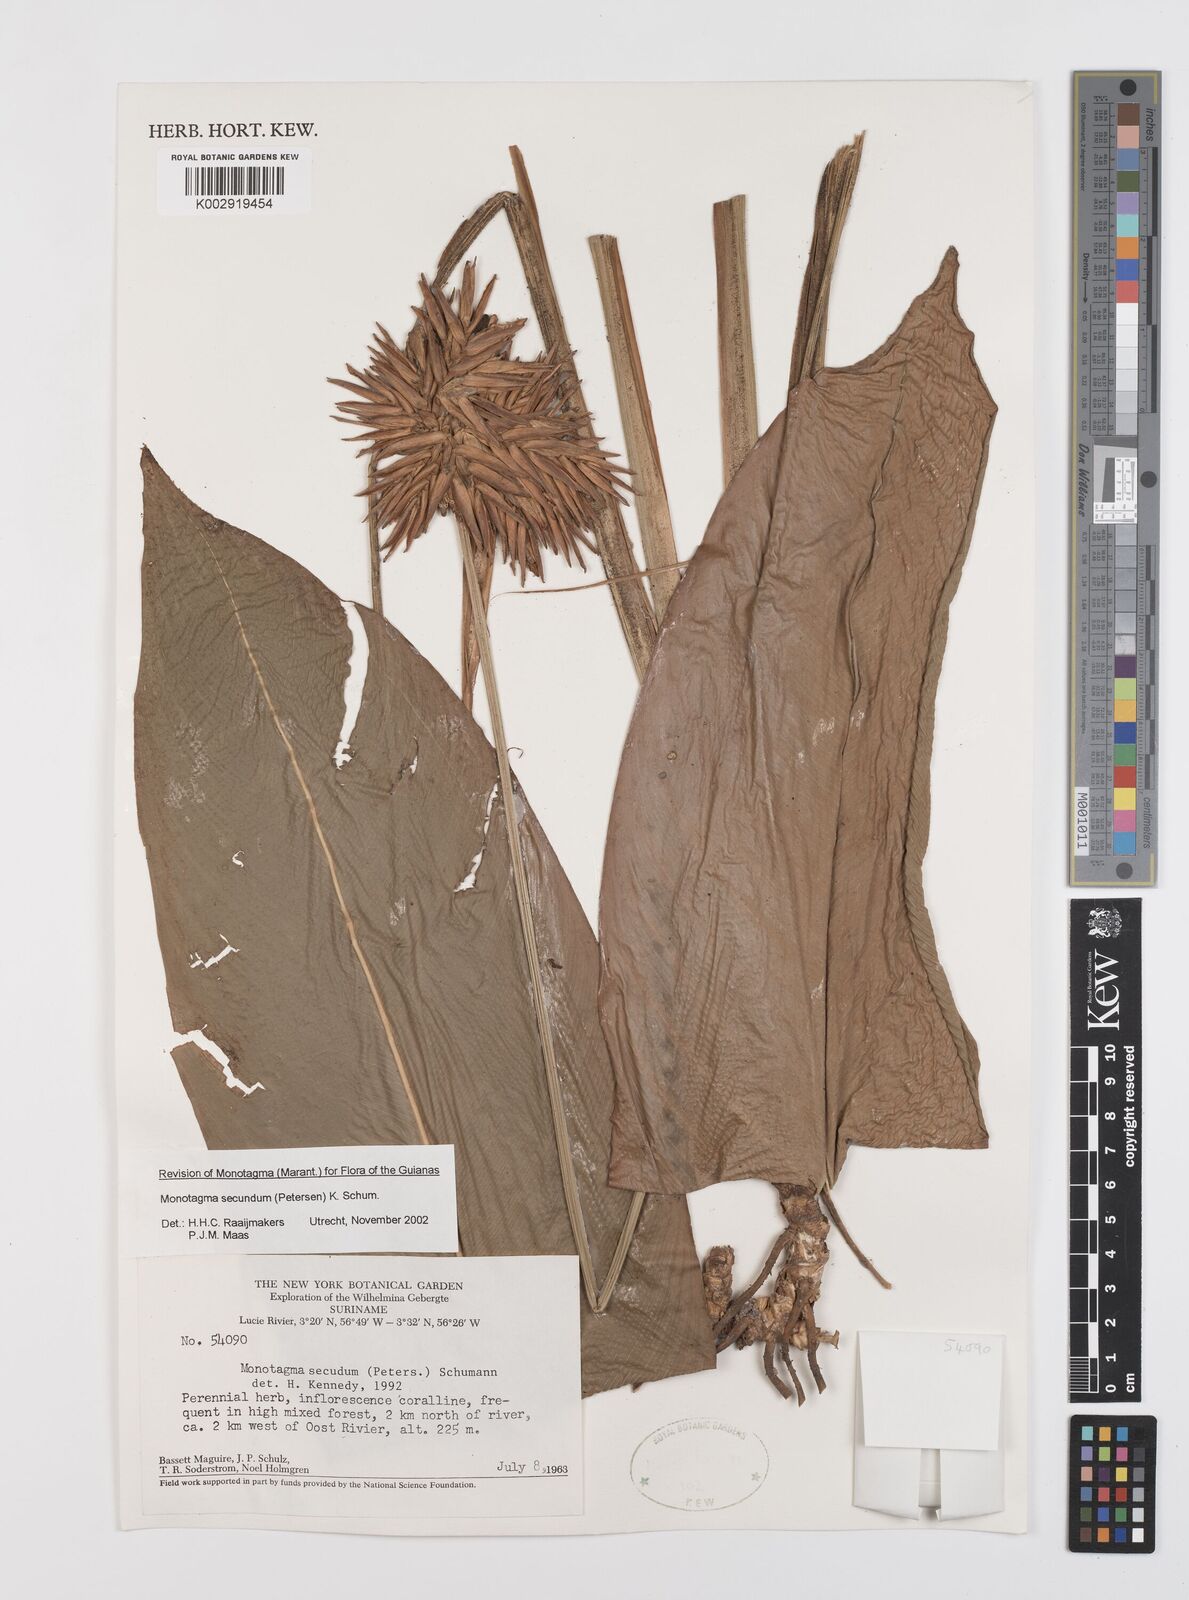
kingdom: Plantae
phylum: Tracheophyta
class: Liliopsida
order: Zingiberales
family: Marantaceae
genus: Monotagma
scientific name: Monotagma secundum
